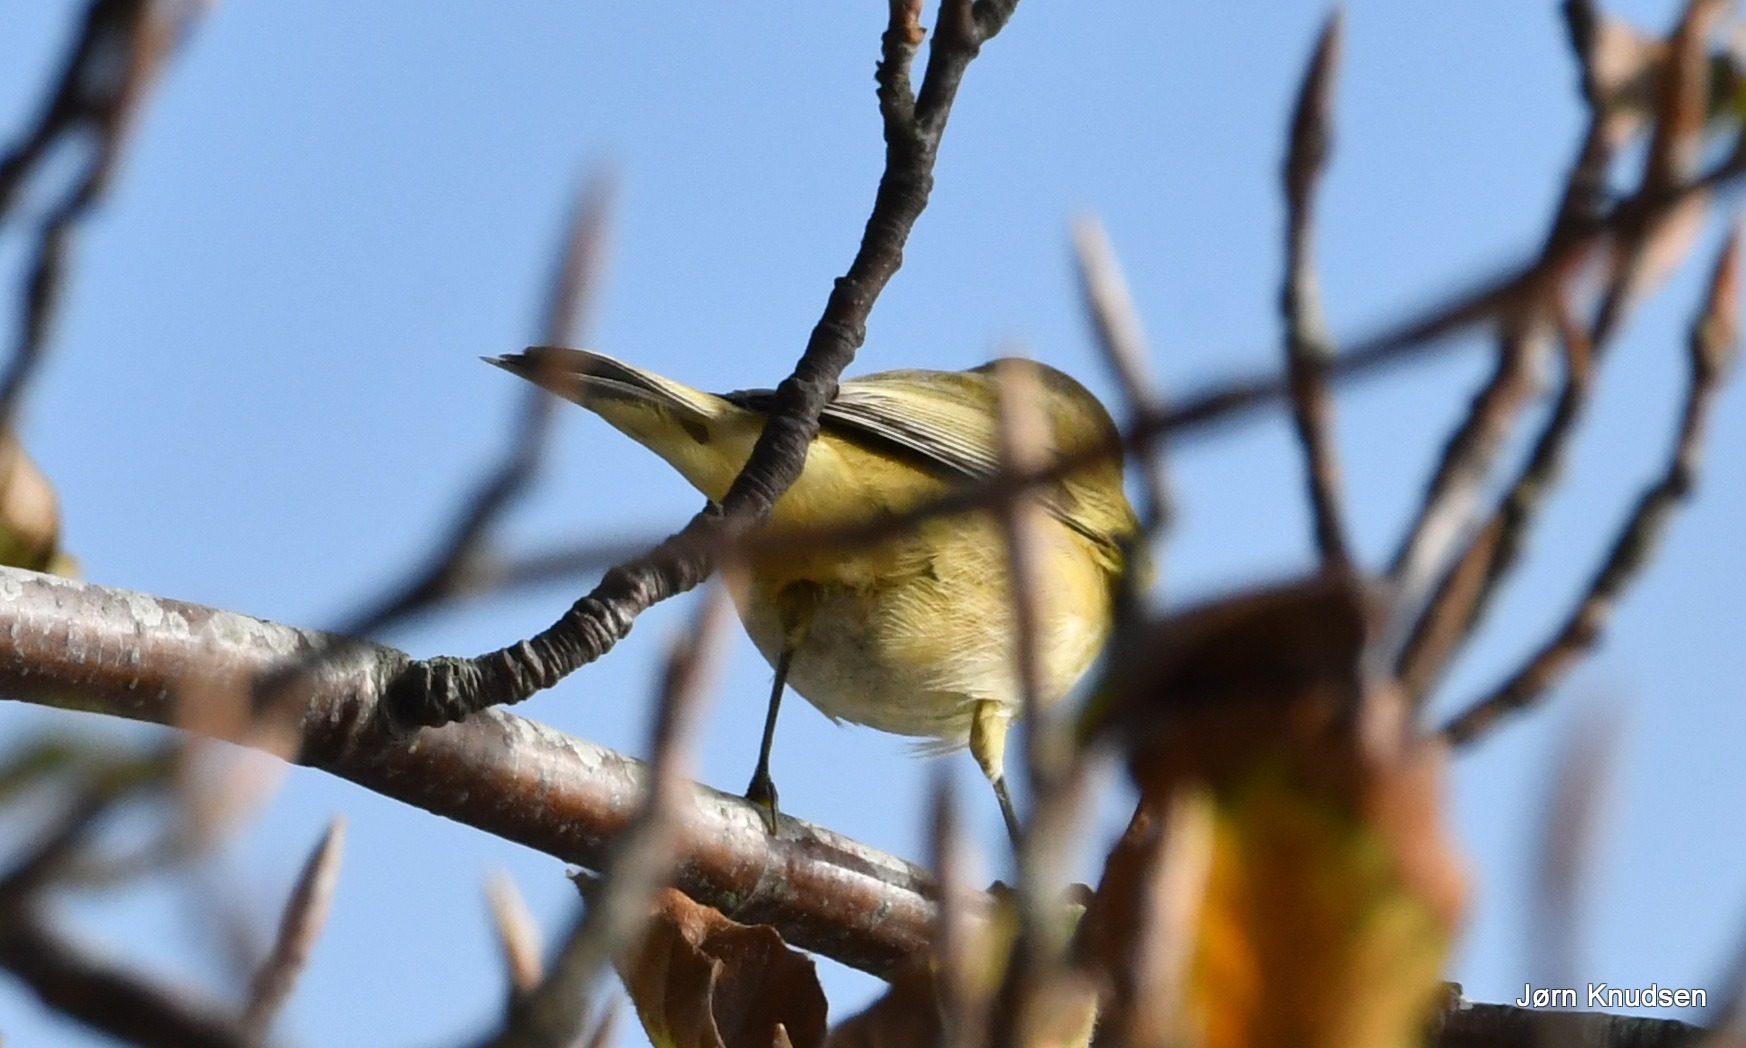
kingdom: Animalia
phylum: Chordata
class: Aves
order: Passeriformes
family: Phylloscopidae
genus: Phylloscopus
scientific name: Phylloscopus collybita
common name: Gransanger
